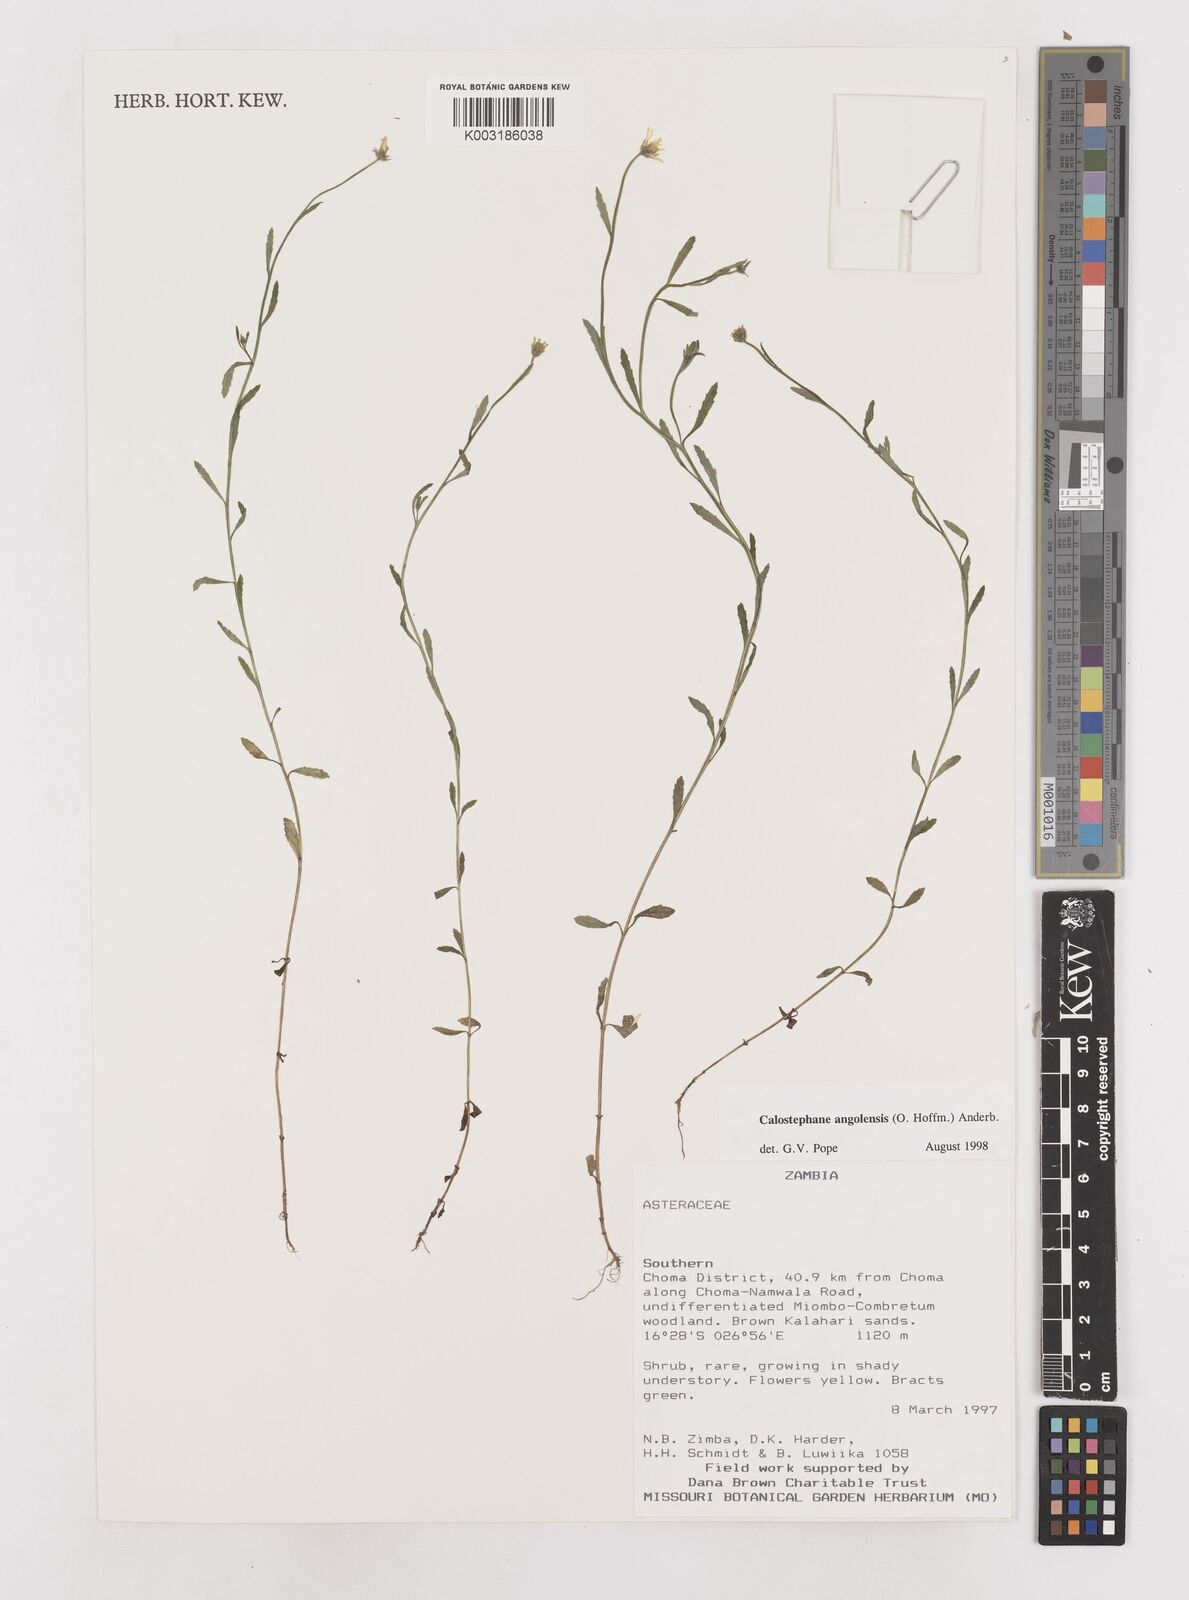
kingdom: Plantae
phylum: Tracheophyta
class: Magnoliopsida
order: Asterales
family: Asteraceae
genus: Calostephane
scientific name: Calostephane angolensis
